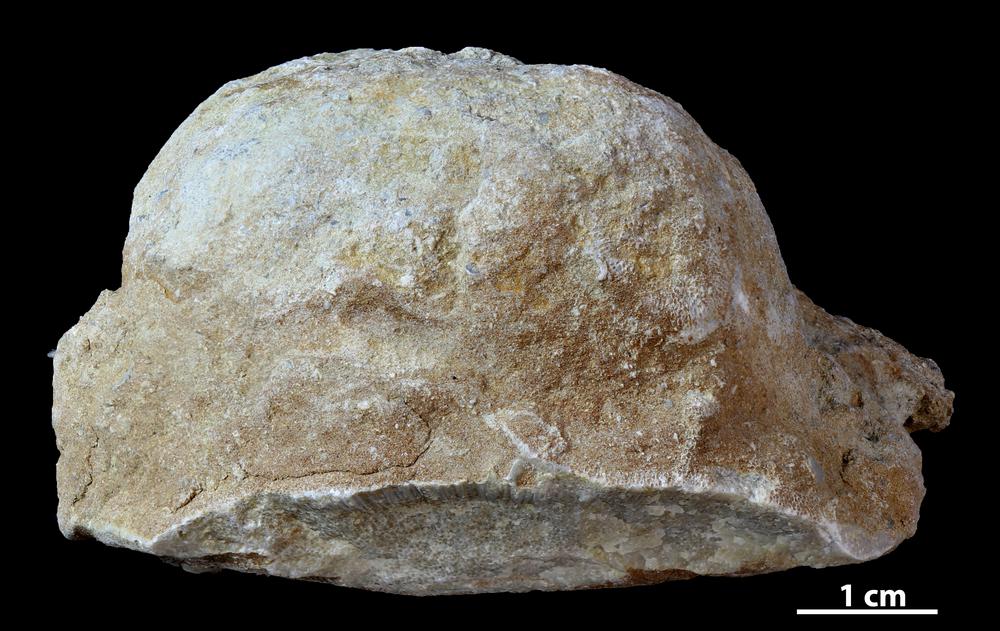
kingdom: Animalia
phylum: Bryozoa
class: Stenolaemata
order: Trepostomatida
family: Diplotrypidae
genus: Diplotrypa
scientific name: Diplotrypa
